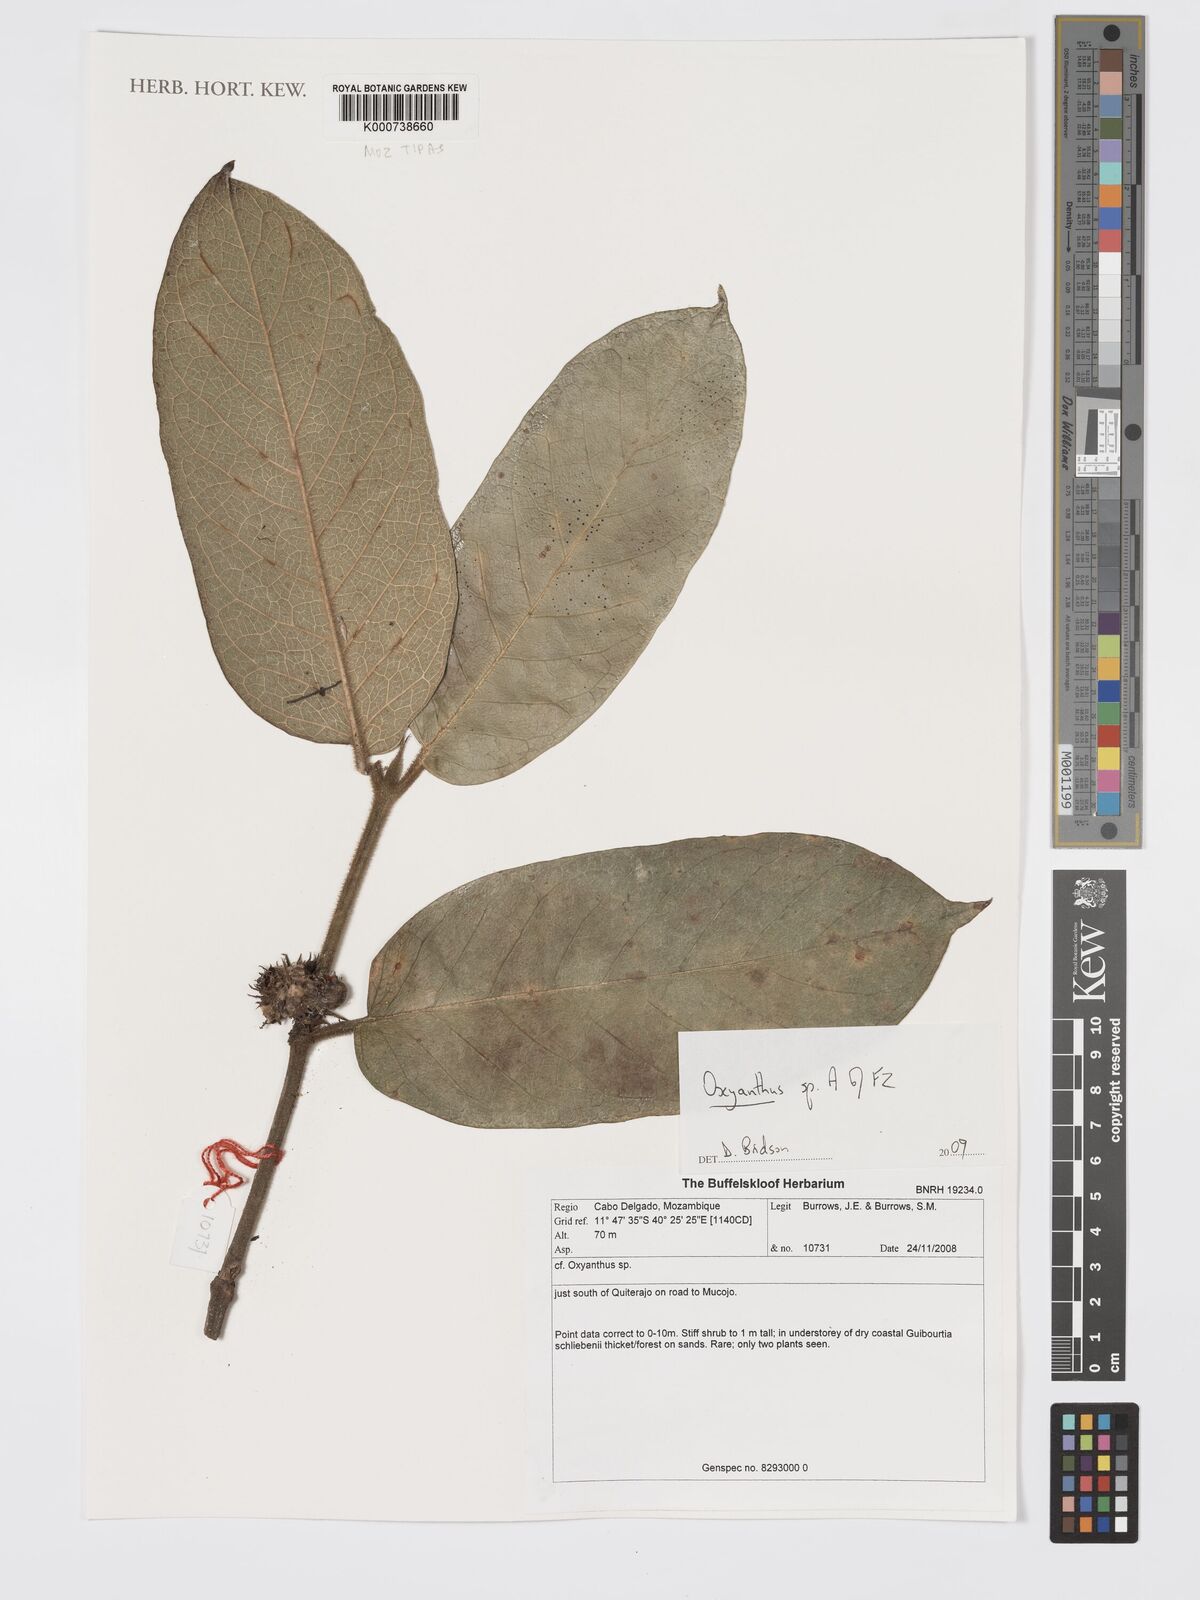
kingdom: Plantae
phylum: Tracheophyta
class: Magnoliopsida
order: Gentianales
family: Rubiaceae
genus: Oxyanthus
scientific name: Oxyanthus strigosus
